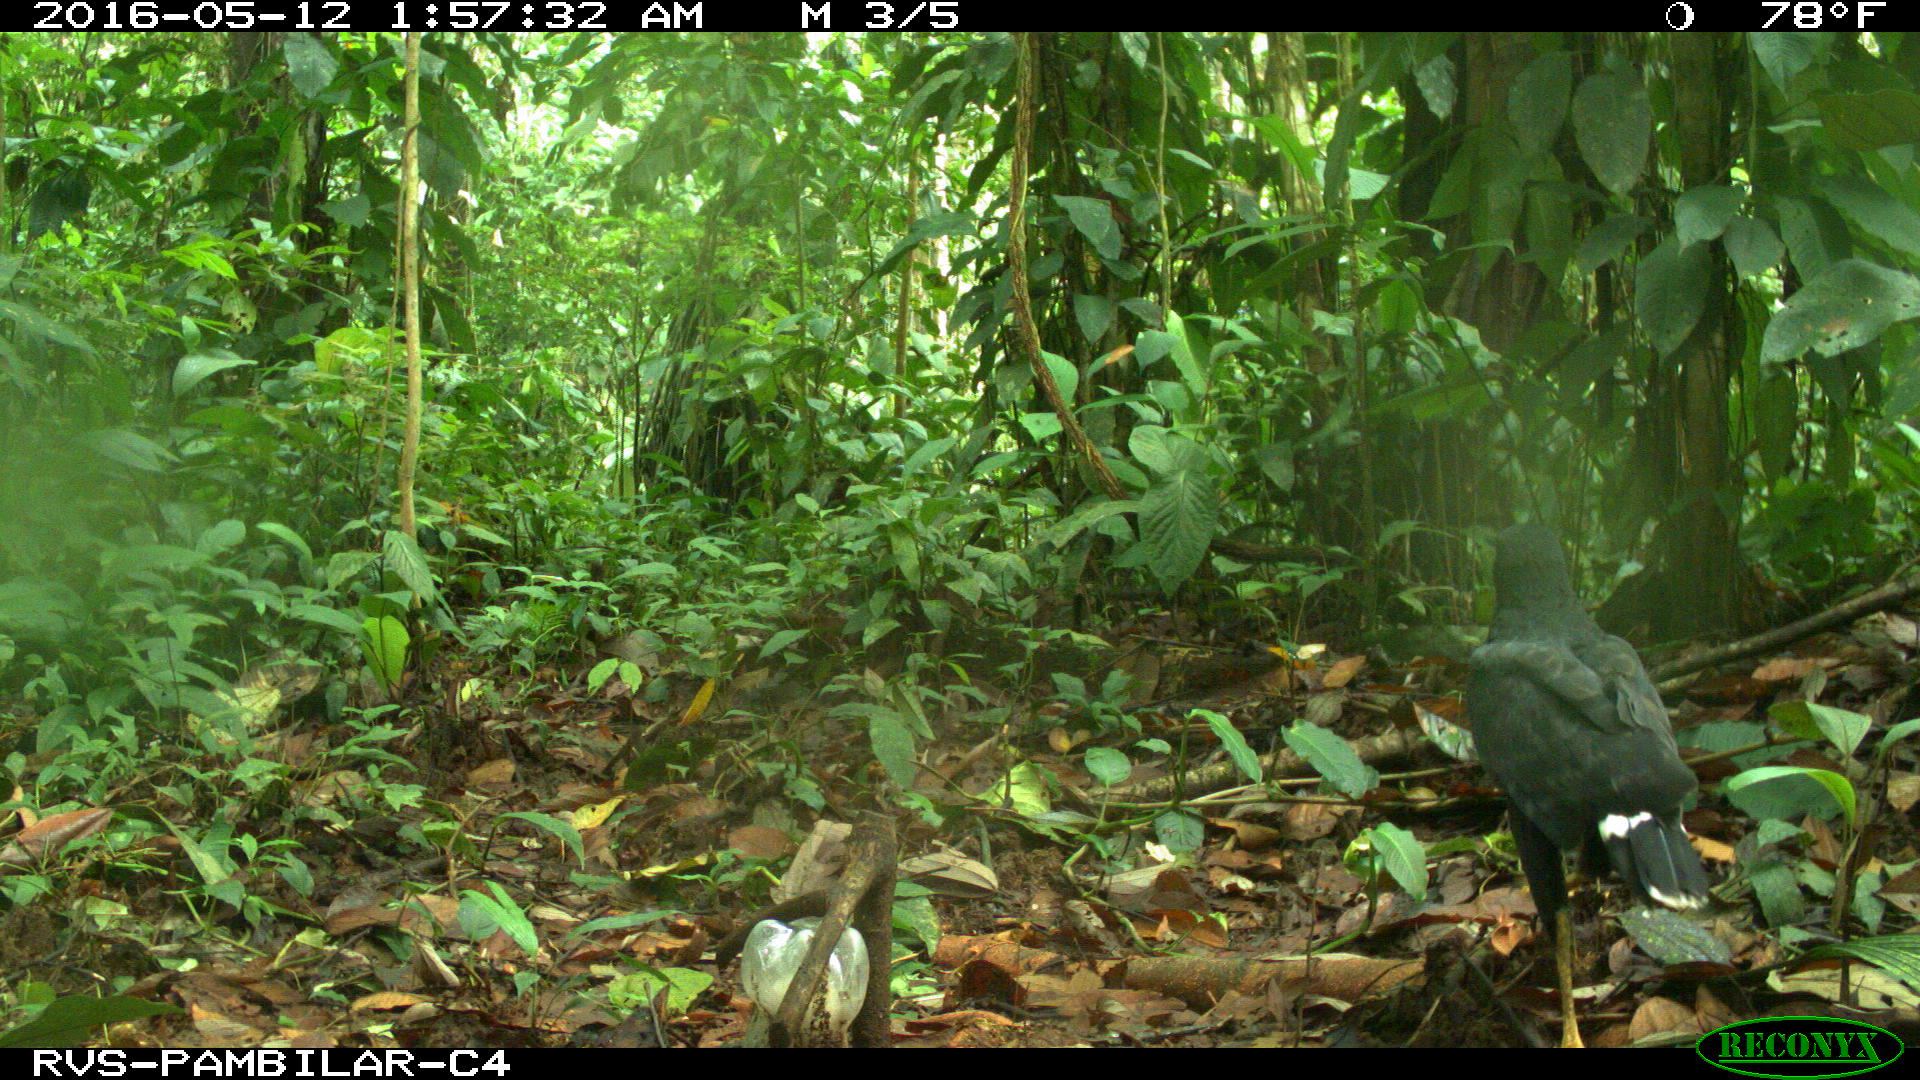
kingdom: Animalia
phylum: Chordata
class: Aves
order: Accipitriformes
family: Accipitridae
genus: Buteogallus
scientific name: Buteogallus urubitinga
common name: Great black hawk
